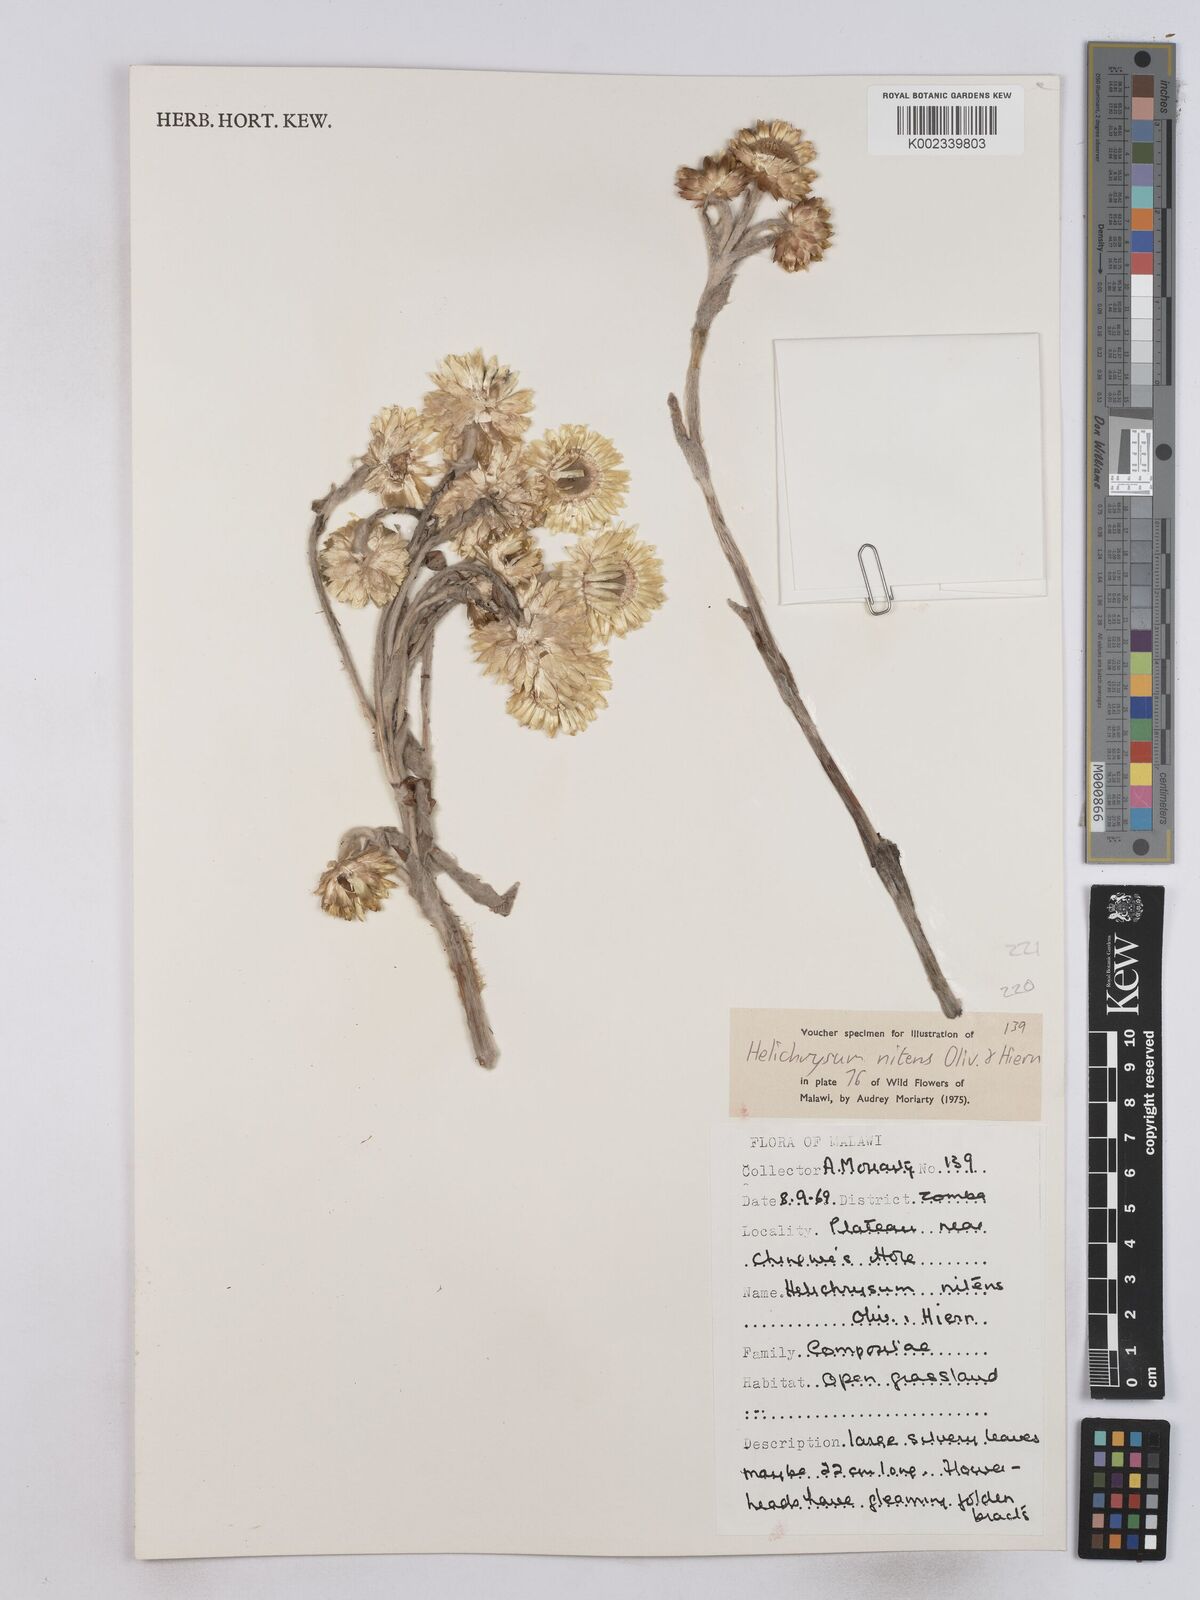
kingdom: Plantae
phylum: Tracheophyta
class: Magnoliopsida
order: Asterales
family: Asteraceae
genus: Helichrysum
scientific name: Helichrysum nitens
